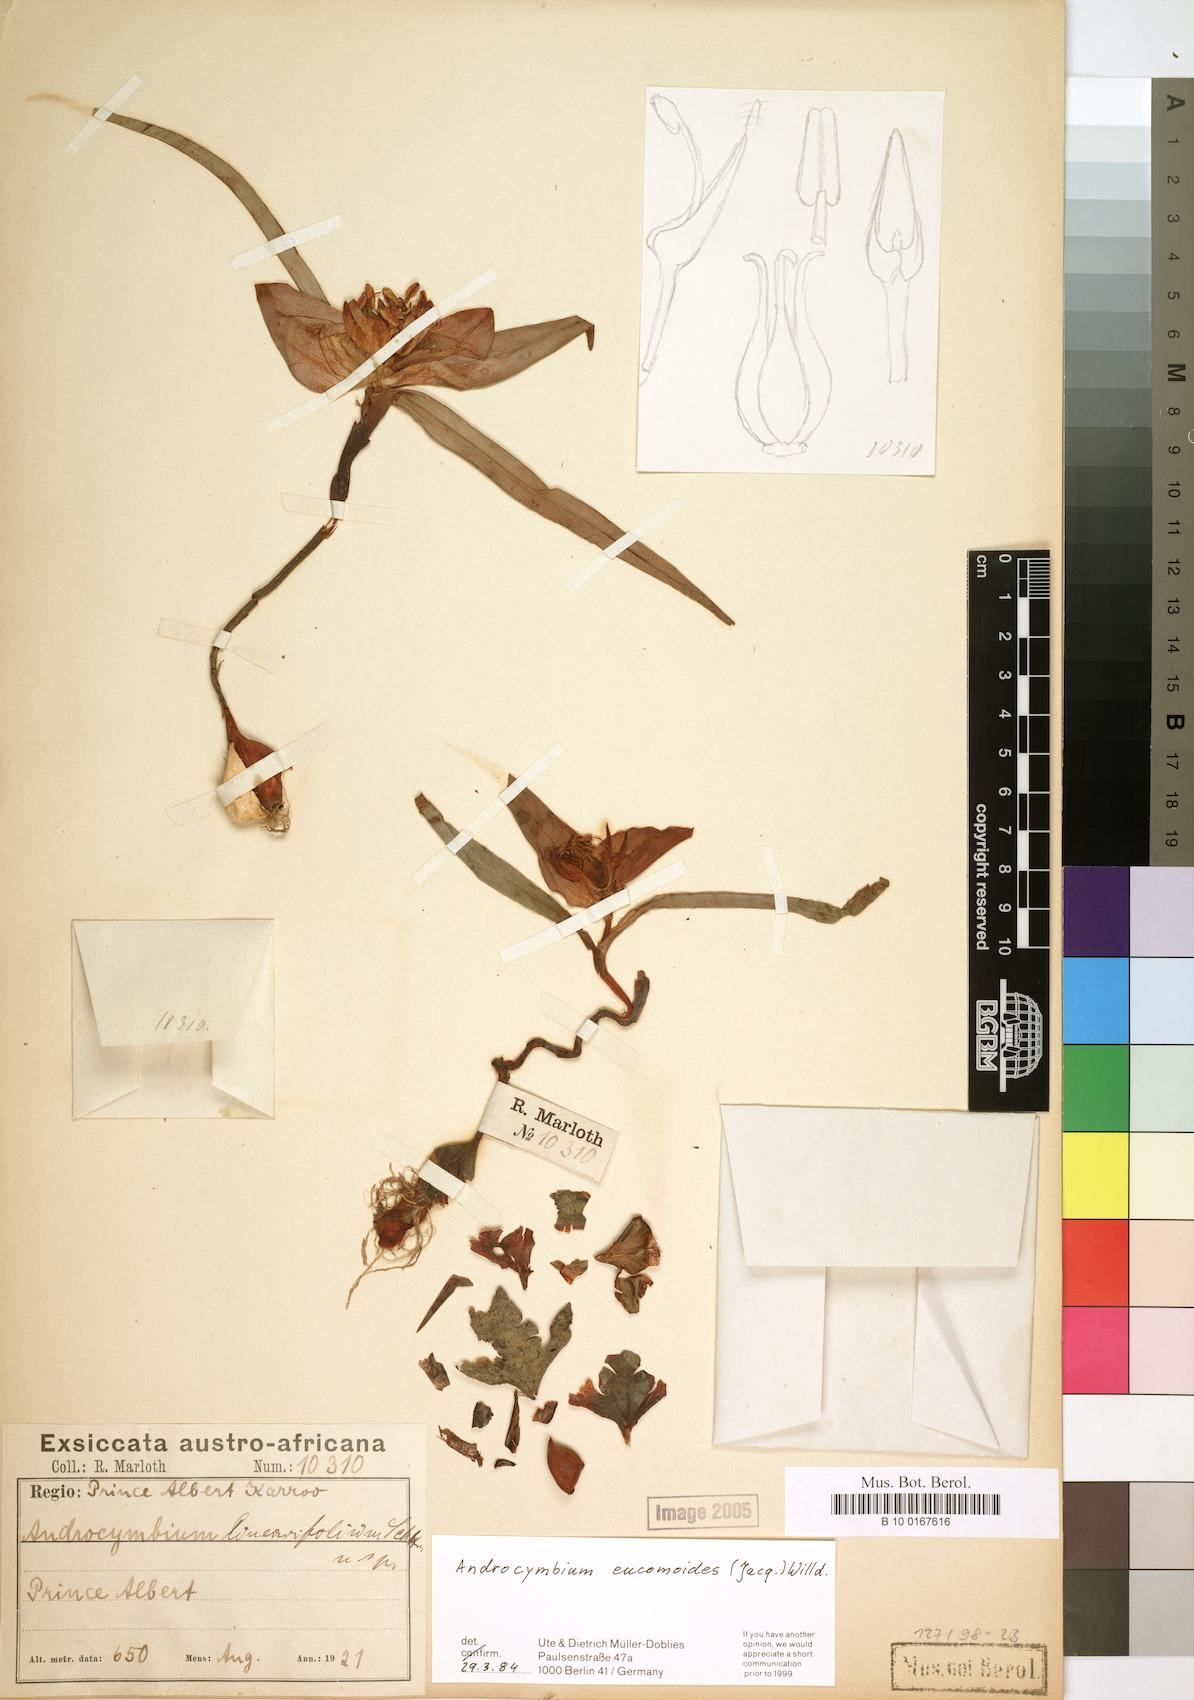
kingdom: Plantae
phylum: Tracheophyta
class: Liliopsida
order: Liliales
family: Colchicaceae
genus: Colchicum
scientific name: Colchicum eucomoides
